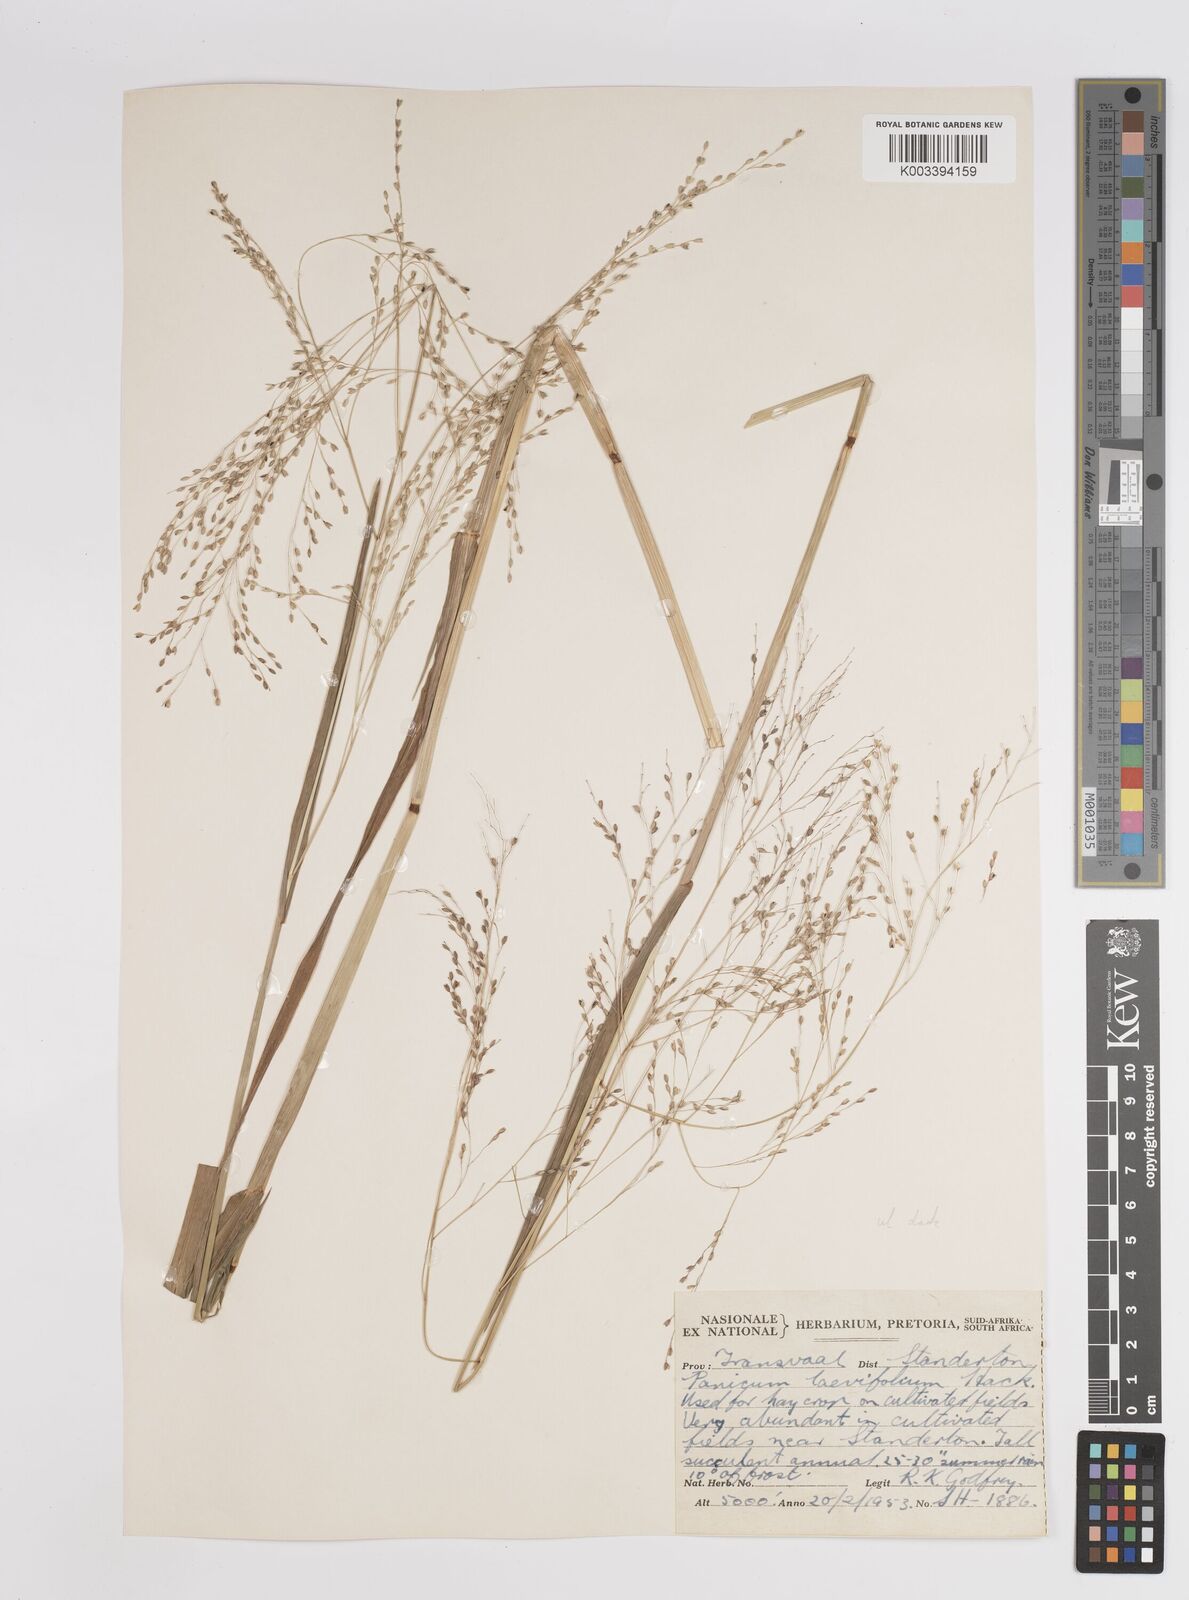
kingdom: Plantae
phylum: Tracheophyta
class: Liliopsida
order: Poales
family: Poaceae
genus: Panicum
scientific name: Panicum schinzii
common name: Sweet grass
